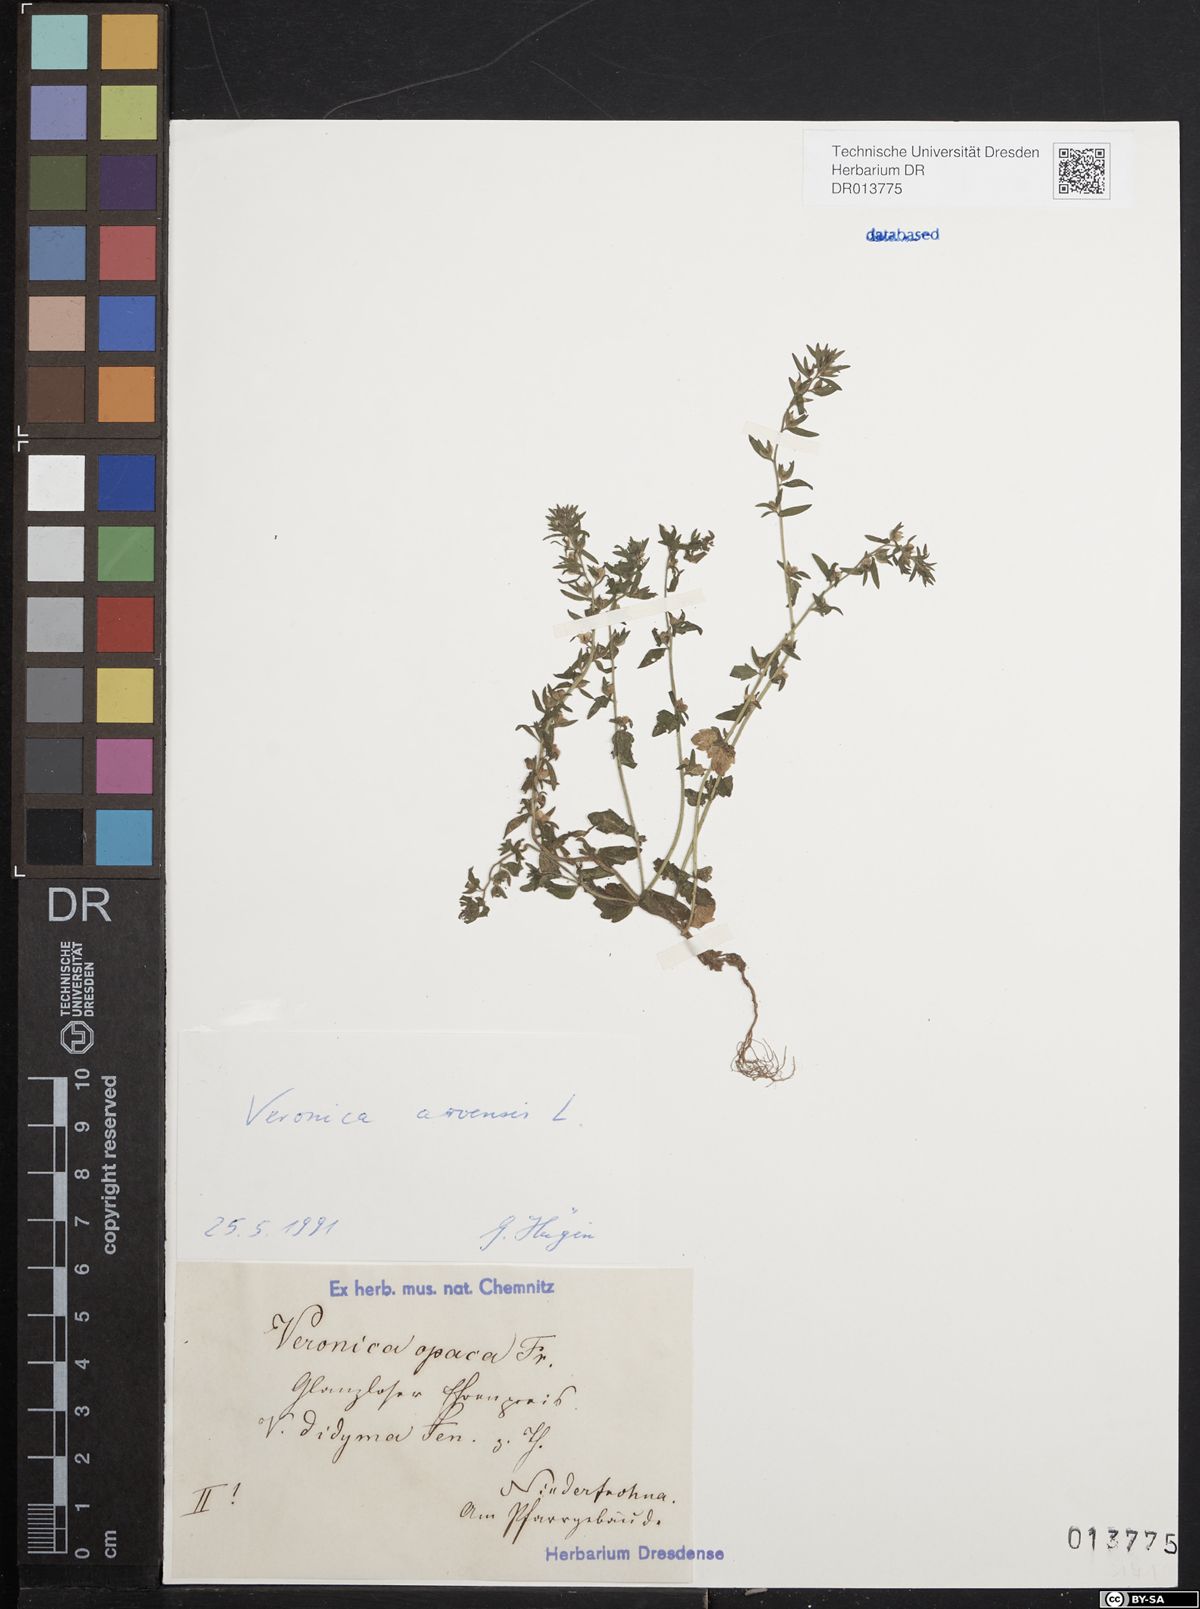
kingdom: Plantae
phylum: Tracheophyta
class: Magnoliopsida
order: Lamiales
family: Plantaginaceae
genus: Veronica
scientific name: Veronica arvensis
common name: Corn speedwell
